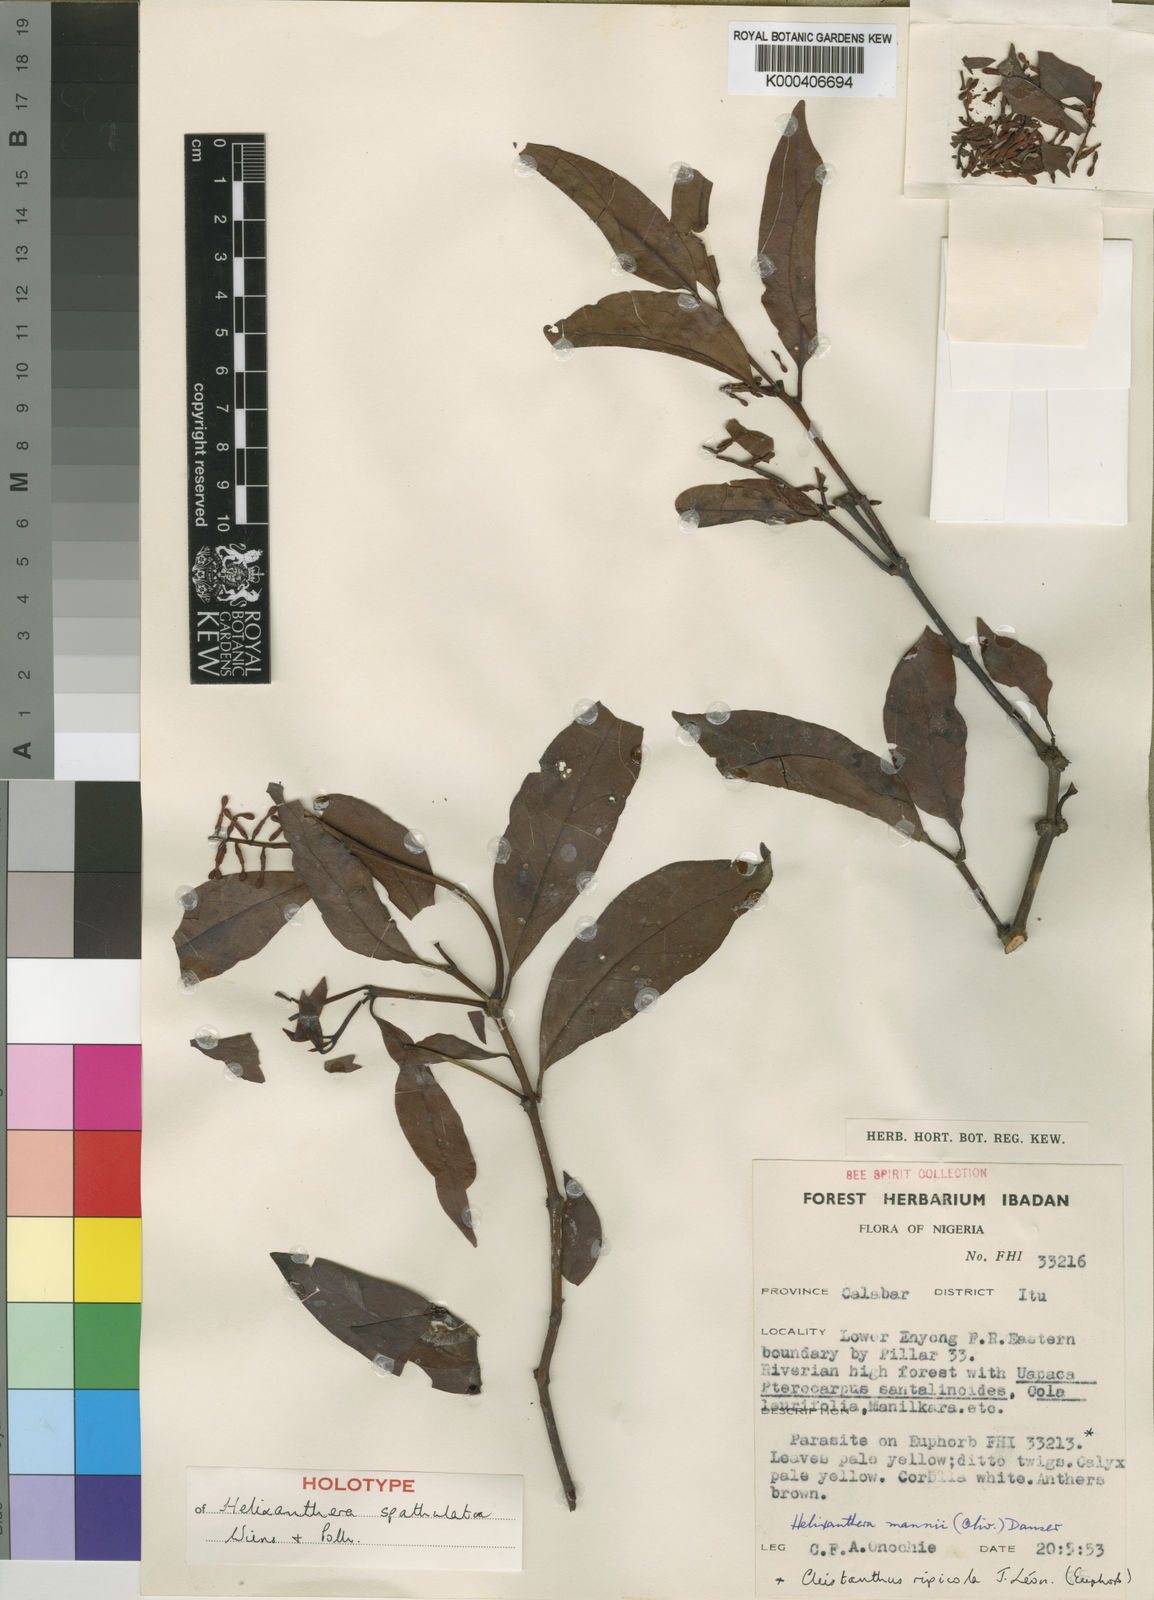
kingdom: Plantae
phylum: Tracheophyta
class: Magnoliopsida
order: Santalales
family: Loranthaceae
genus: Helixanthera
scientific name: Helixanthera spathulata
